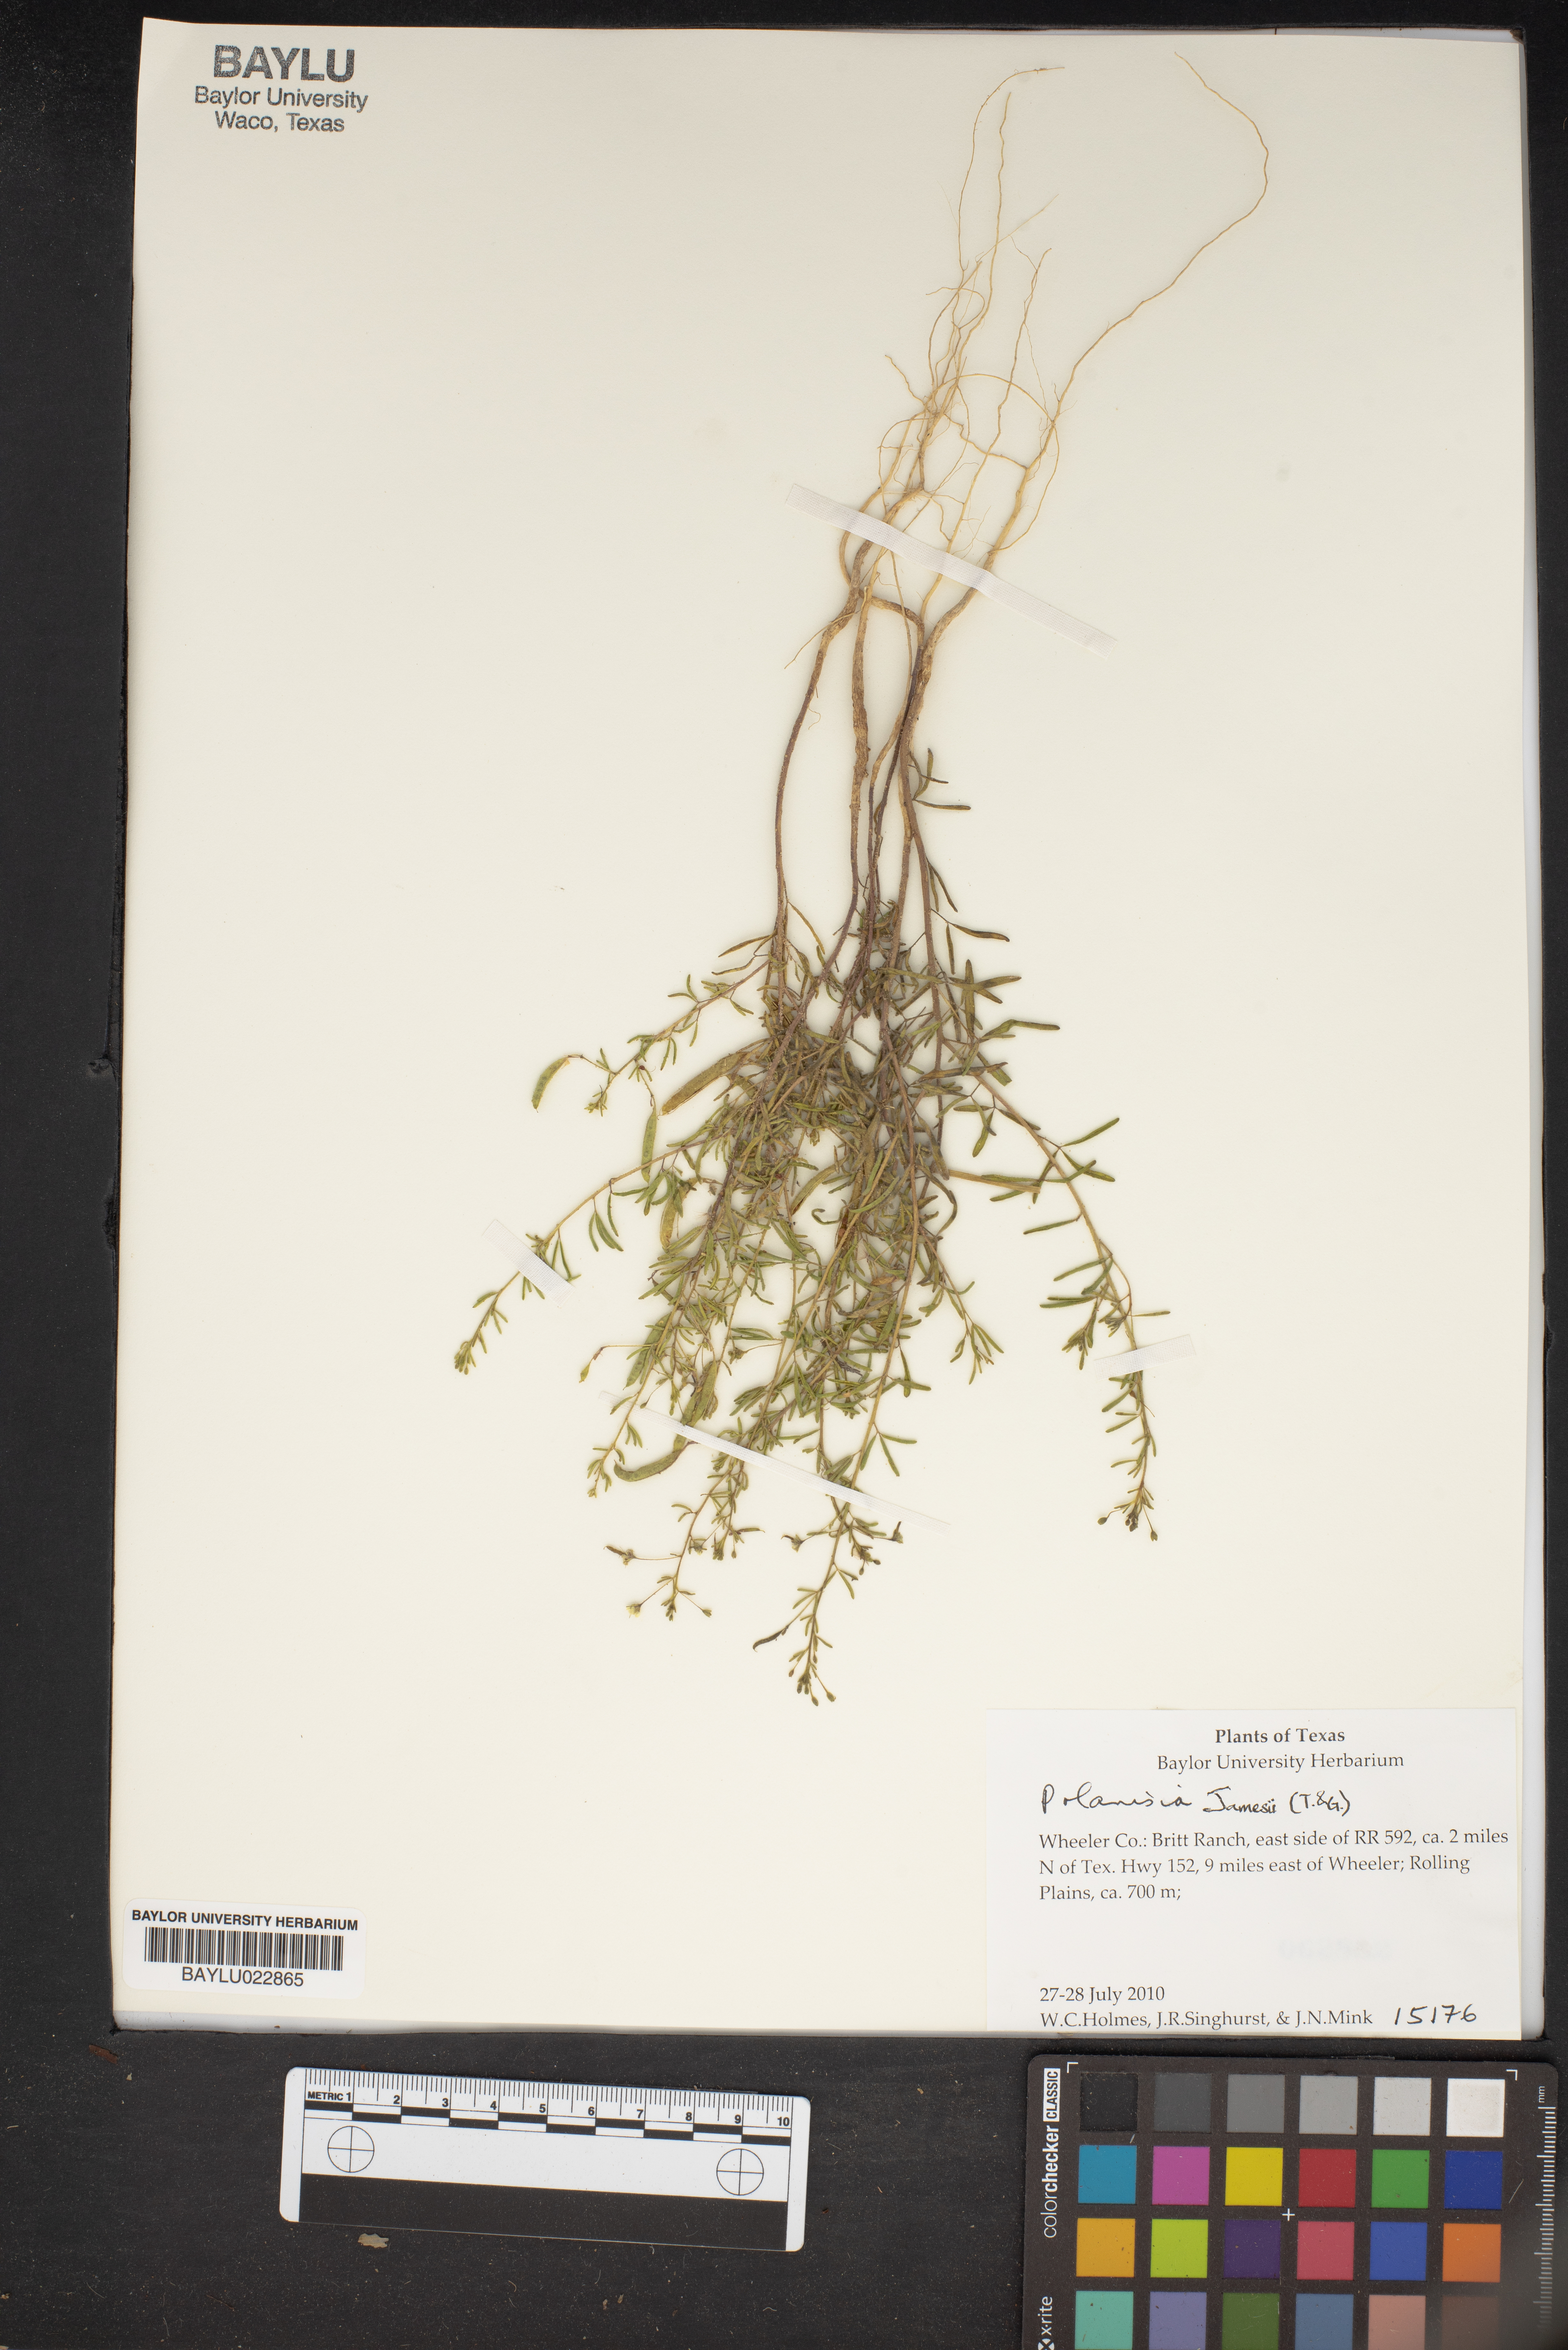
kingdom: Plantae
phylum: Tracheophyta
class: Magnoliopsida
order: Brassicales
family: Cleomaceae
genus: Polanisia
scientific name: Polanisia jamesii
